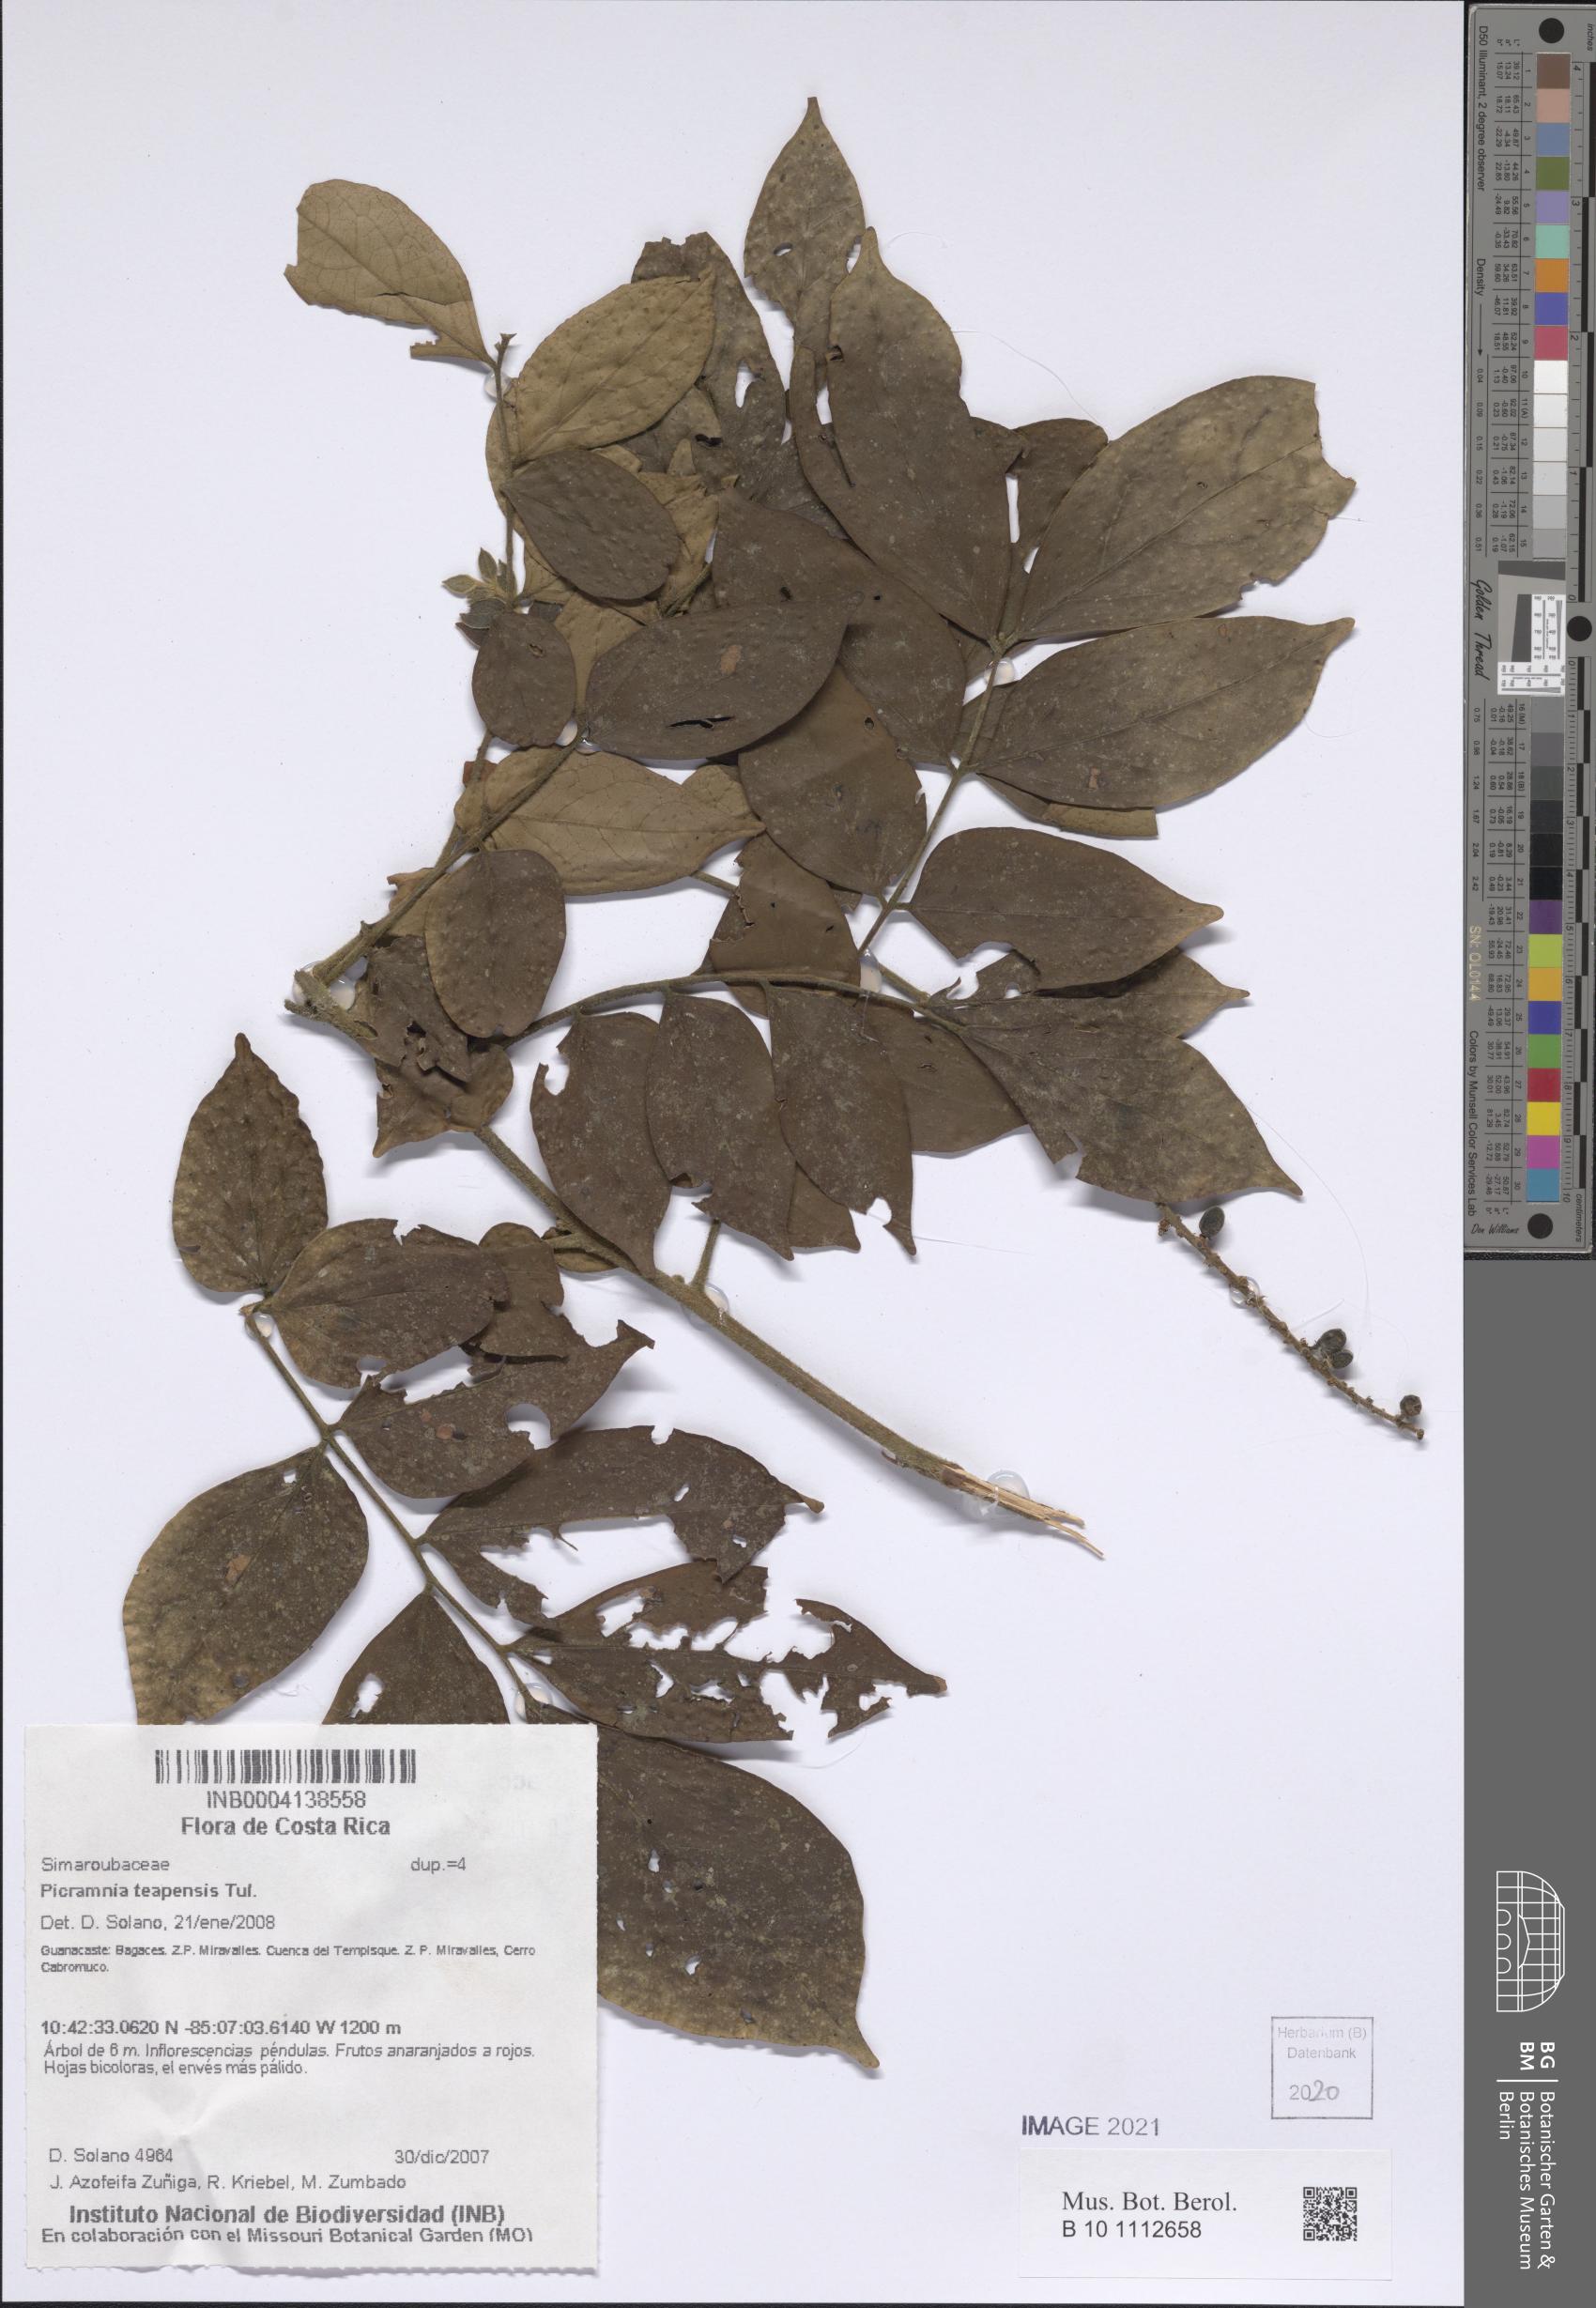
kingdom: Plantae
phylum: Tracheophyta
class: Magnoliopsida
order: Picramniales
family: Picramniaceae
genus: Picramnia
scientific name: Picramnia teapensis
